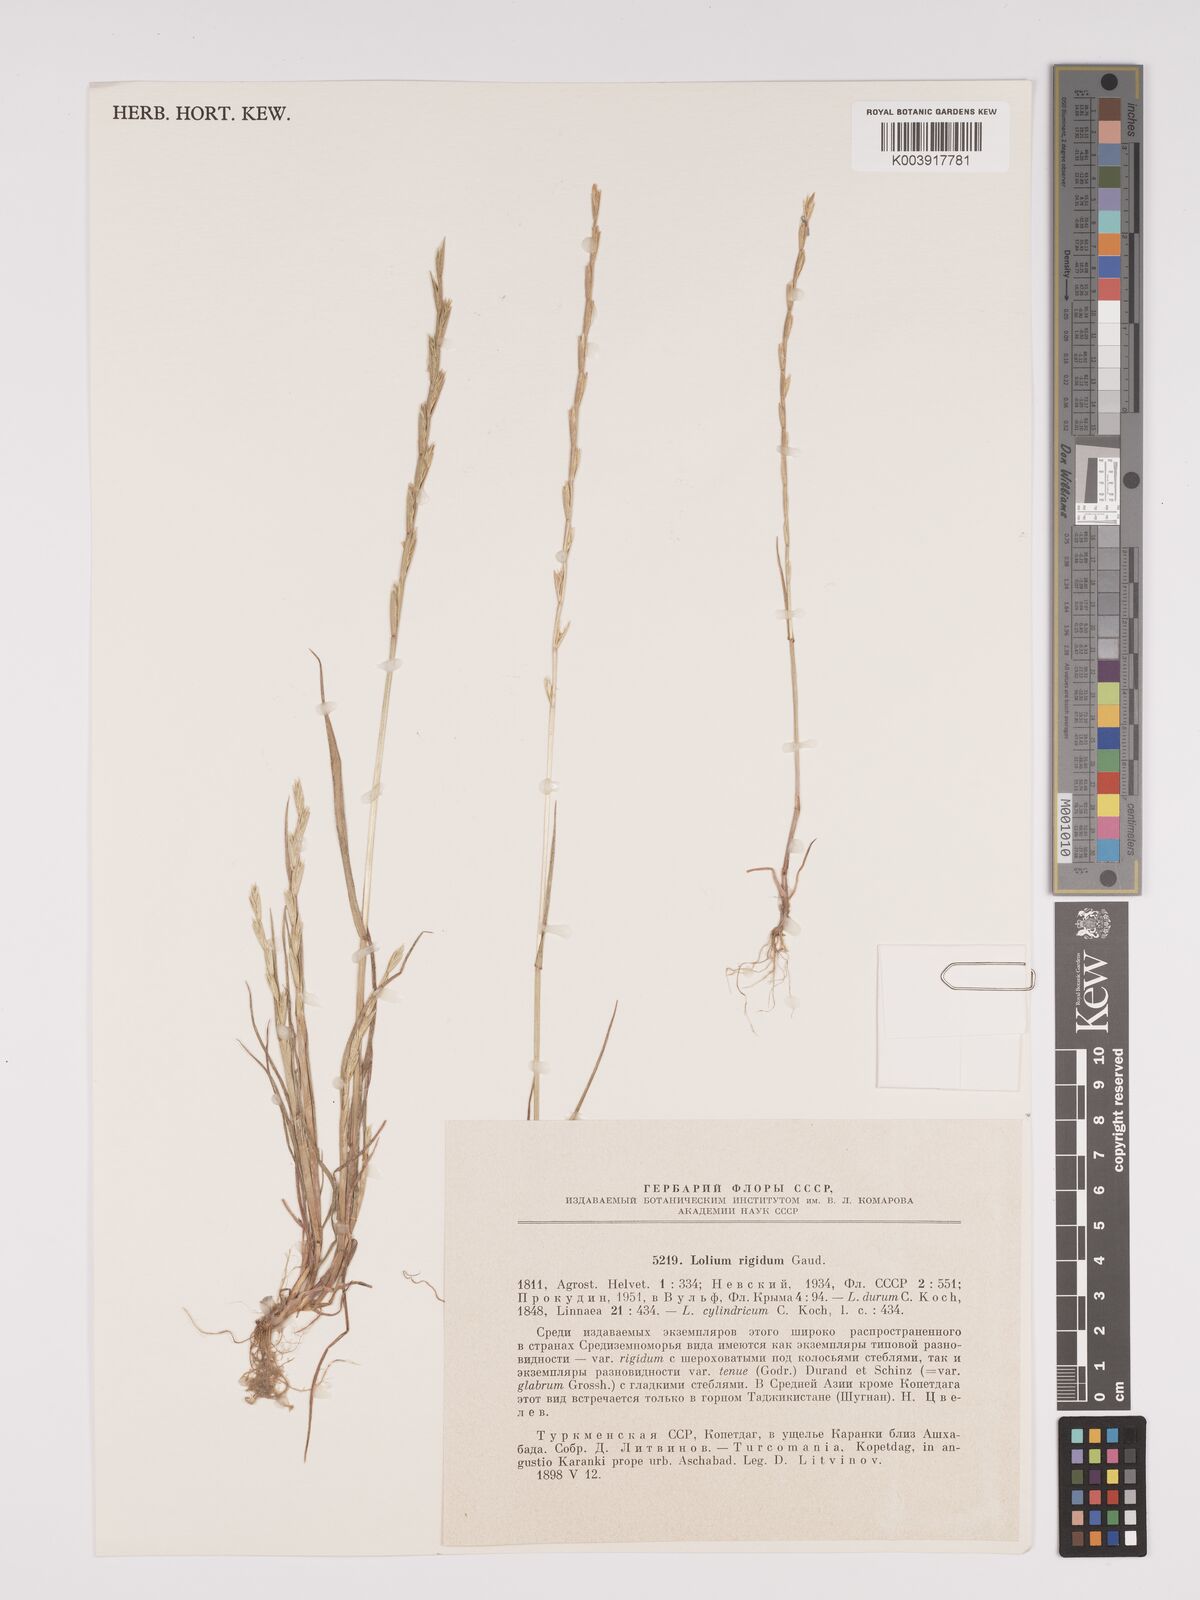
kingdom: Plantae
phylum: Tracheophyta
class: Liliopsida
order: Poales
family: Poaceae
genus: Lolium
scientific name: Lolium rigidum
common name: Wimmera ryegrass
